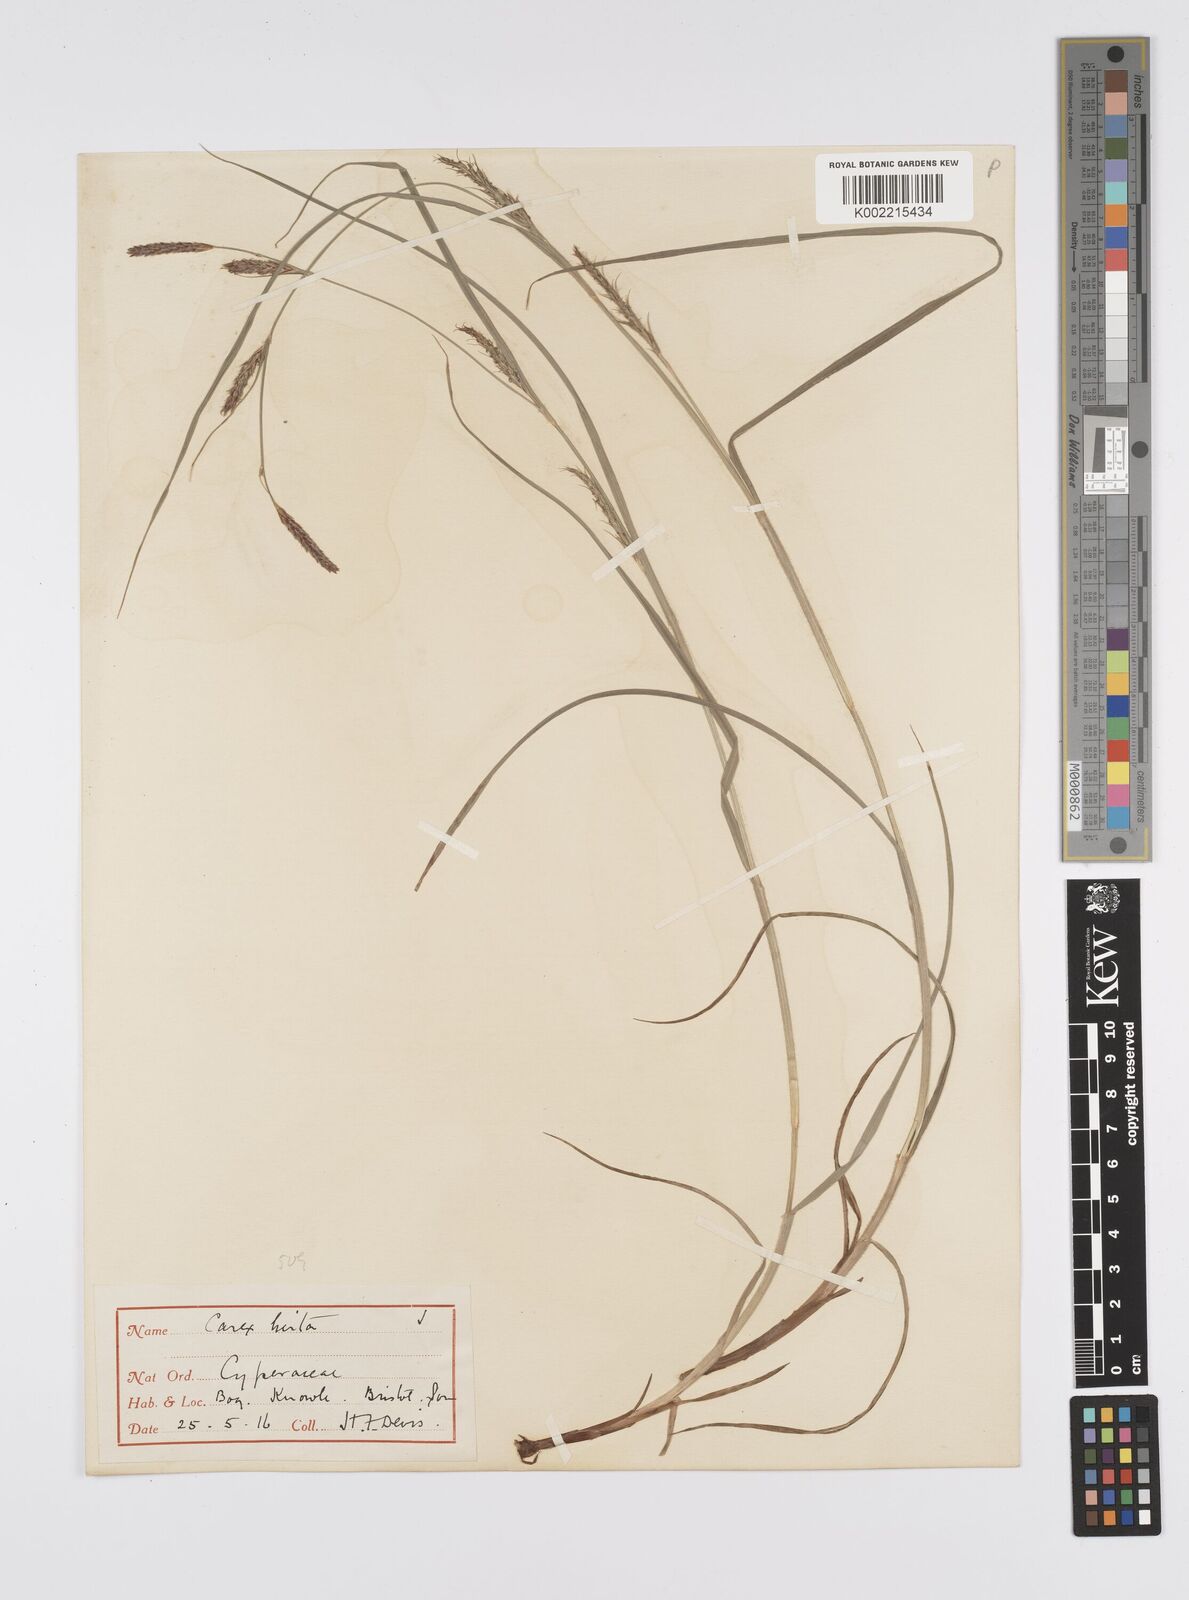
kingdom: Plantae
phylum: Tracheophyta
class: Liliopsida
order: Poales
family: Cyperaceae
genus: Carex
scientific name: Carex hirta
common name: Hairy sedge
